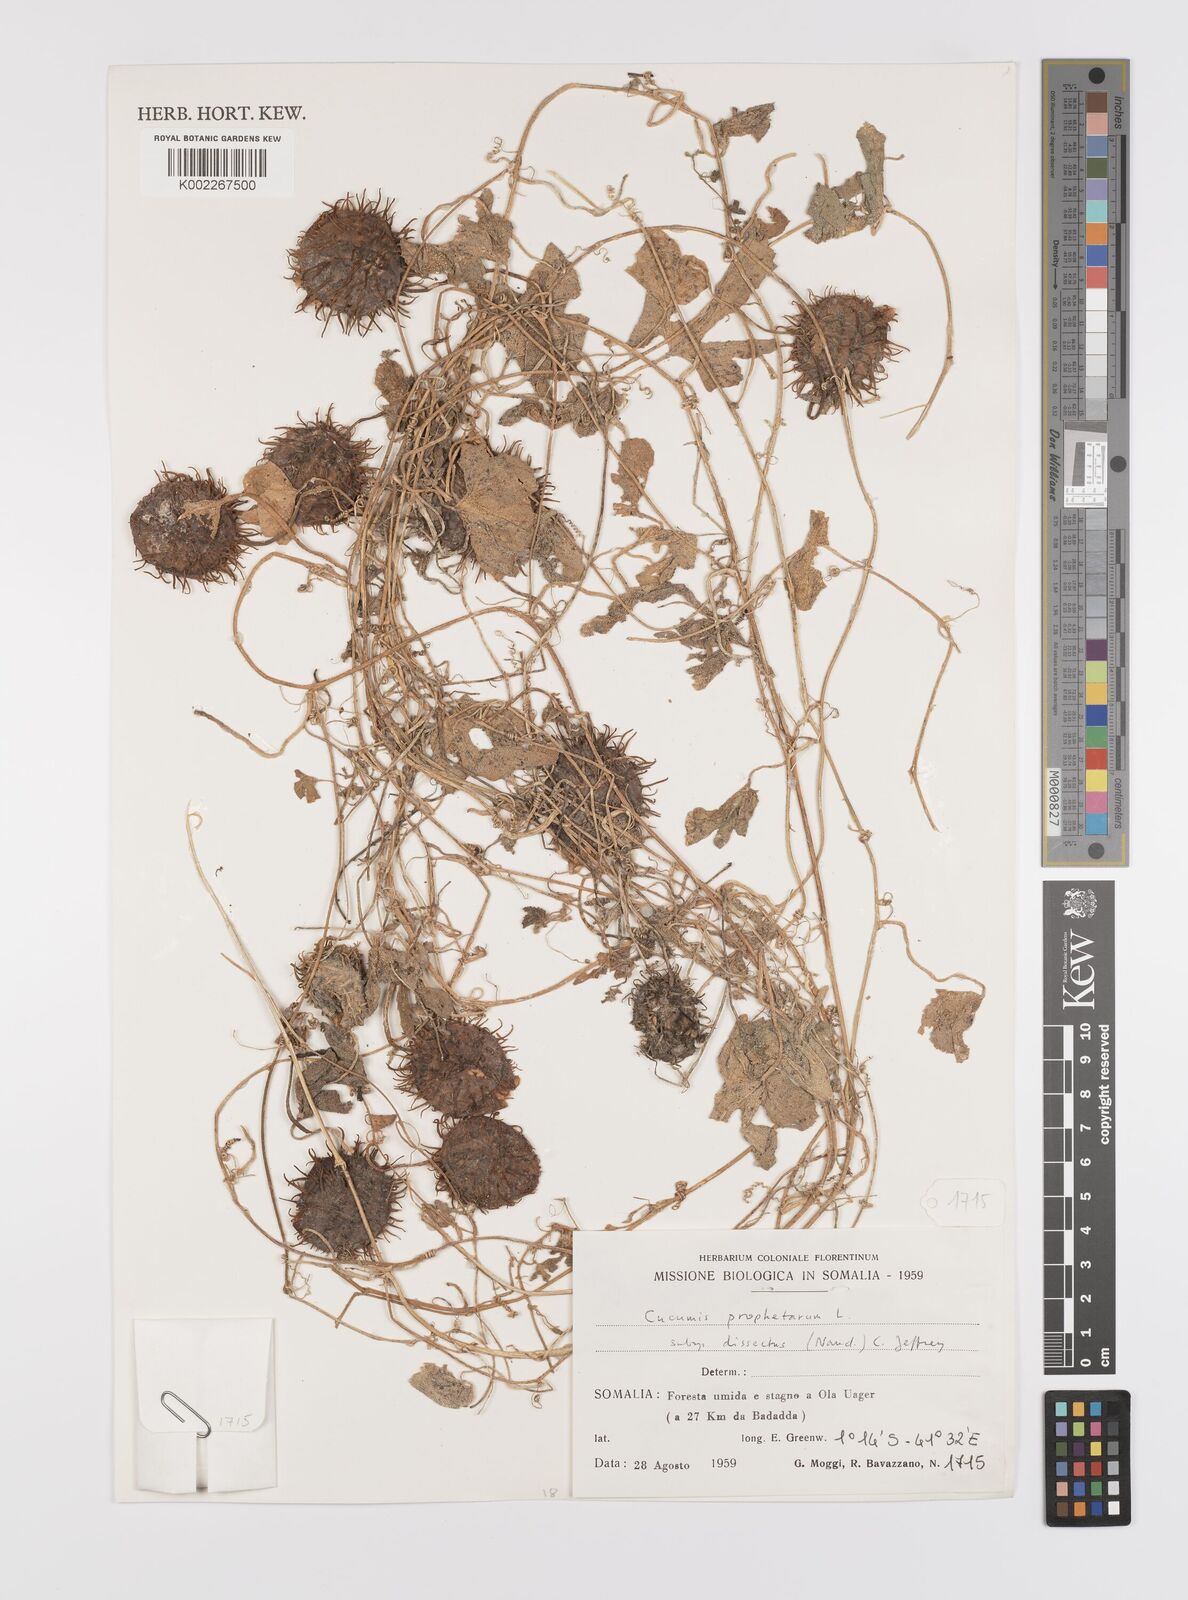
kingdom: Plantae
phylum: Tracheophyta
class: Magnoliopsida
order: Cucurbitales
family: Cucurbitaceae
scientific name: Cucurbitaceae
